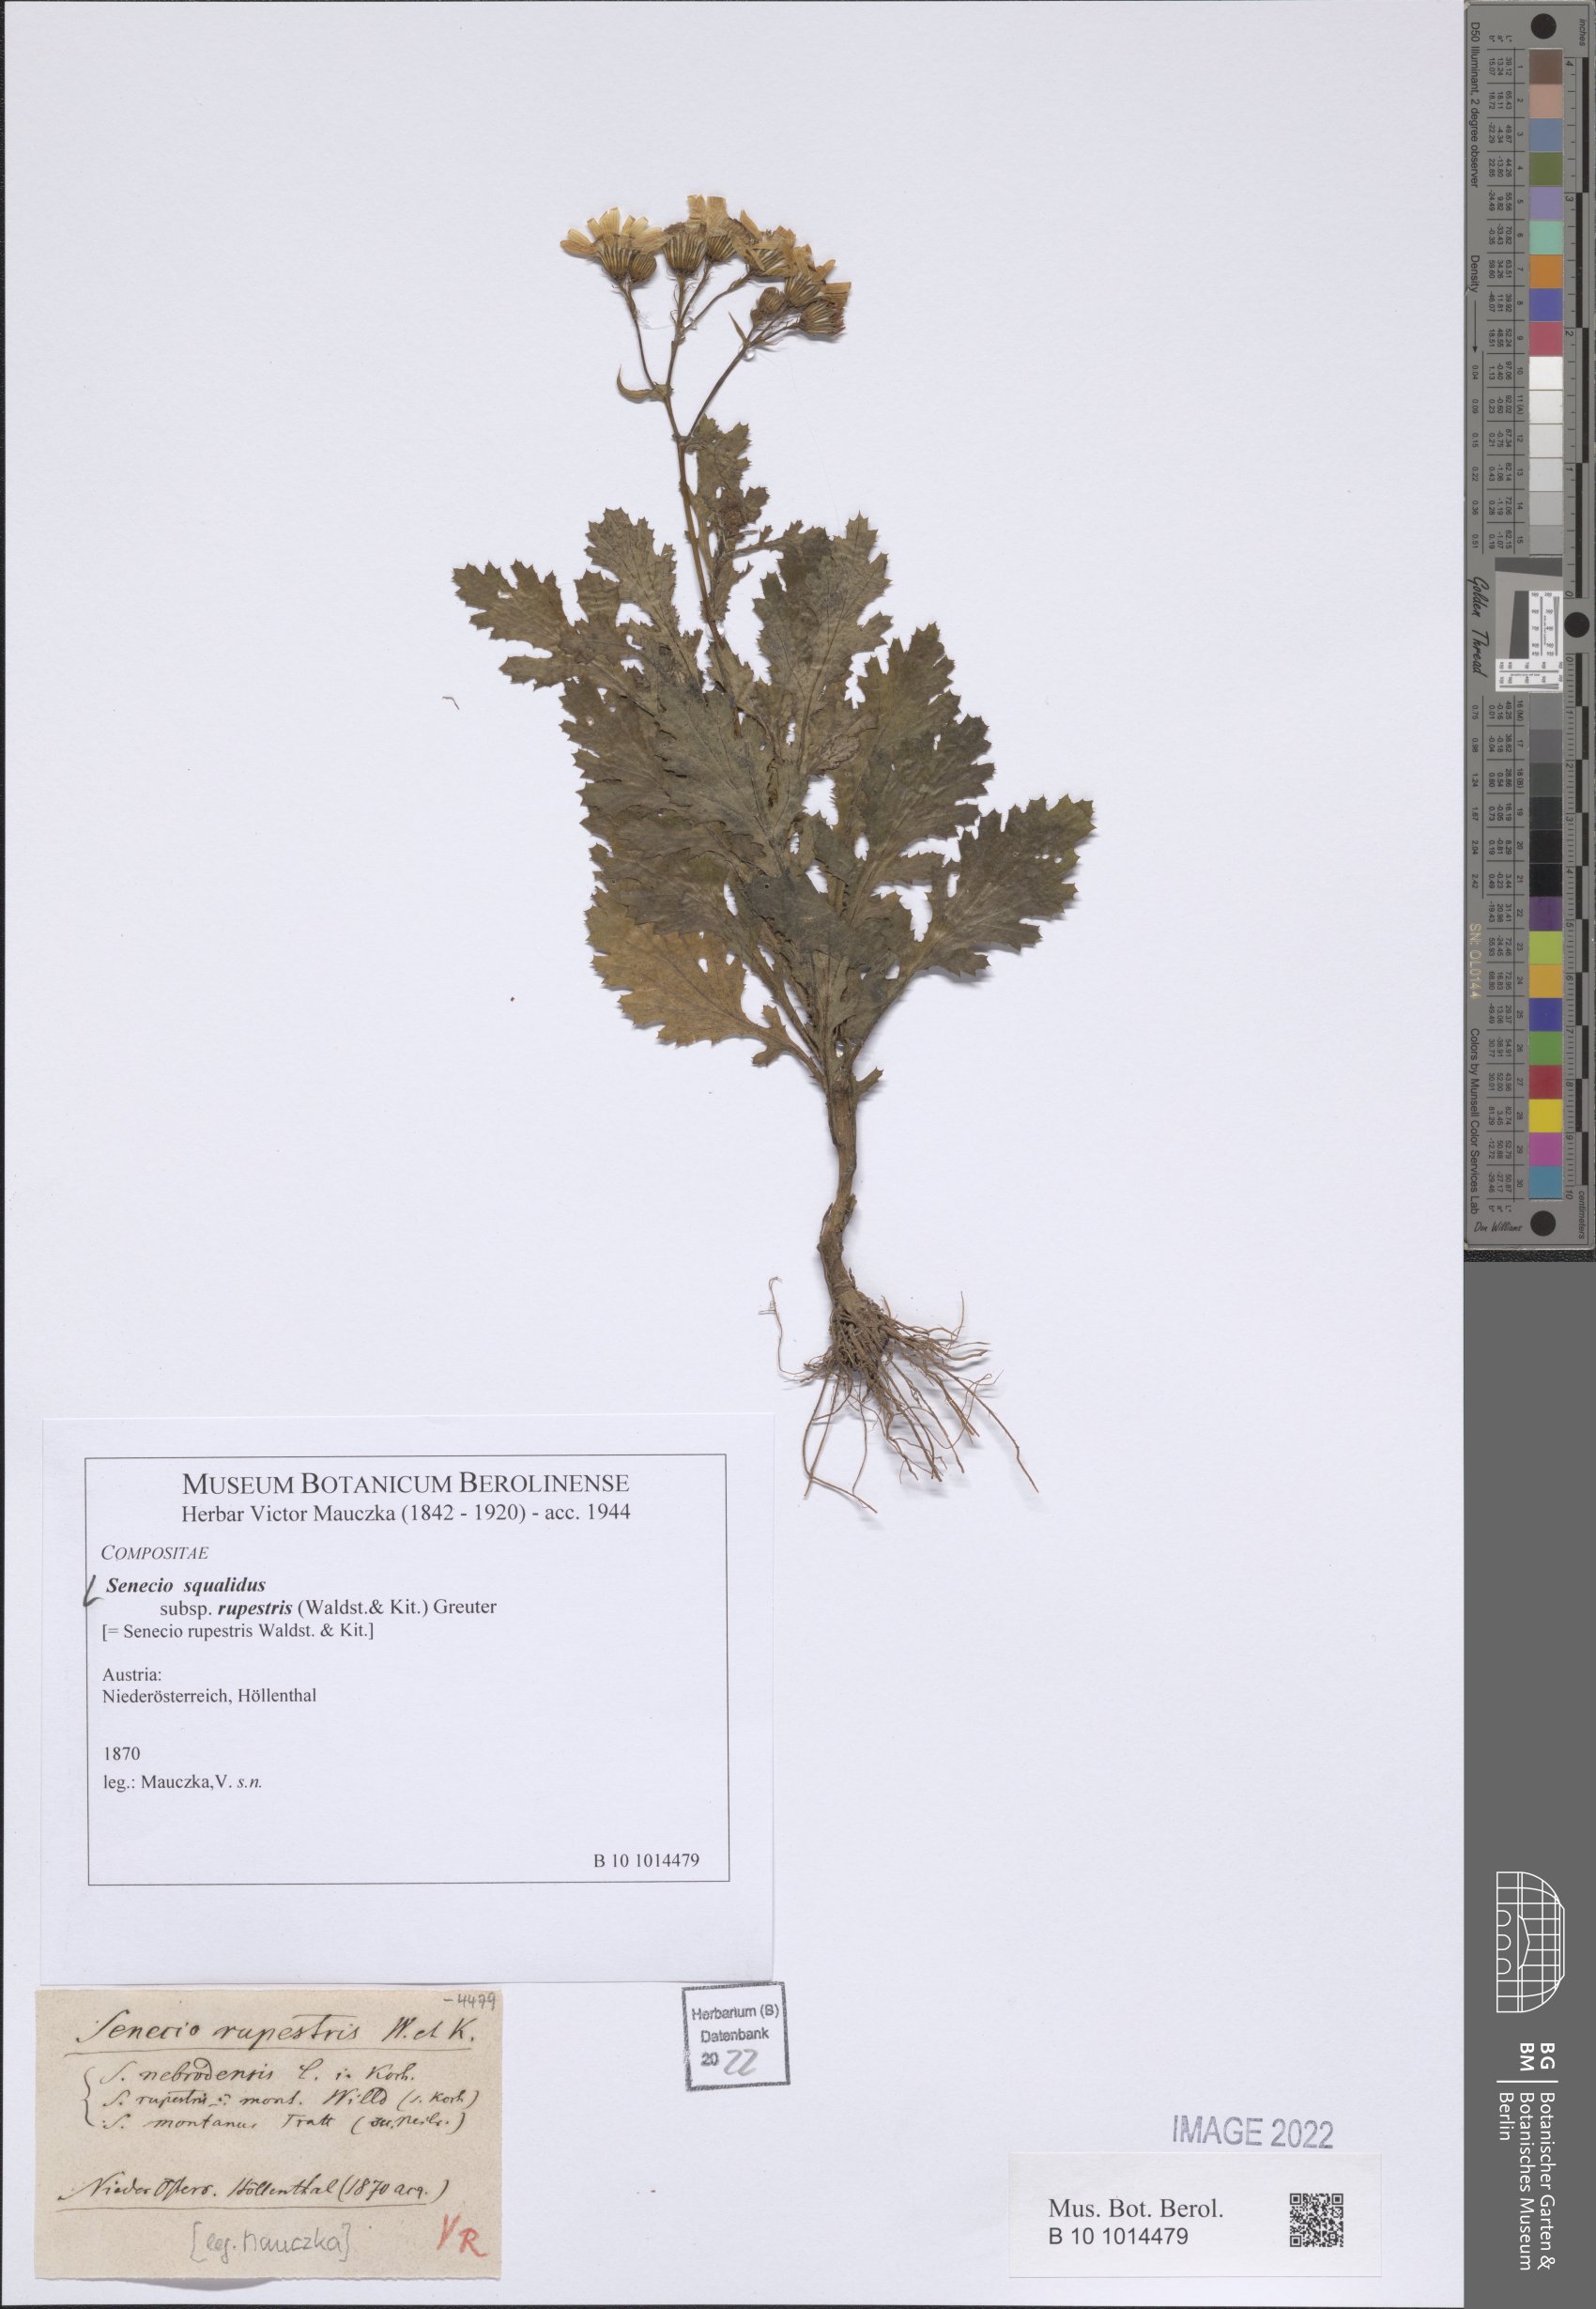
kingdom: Plantae
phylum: Tracheophyta
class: Magnoliopsida
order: Asterales
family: Asteraceae
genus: Senecio
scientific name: Senecio rupestris
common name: Rock ragwort
